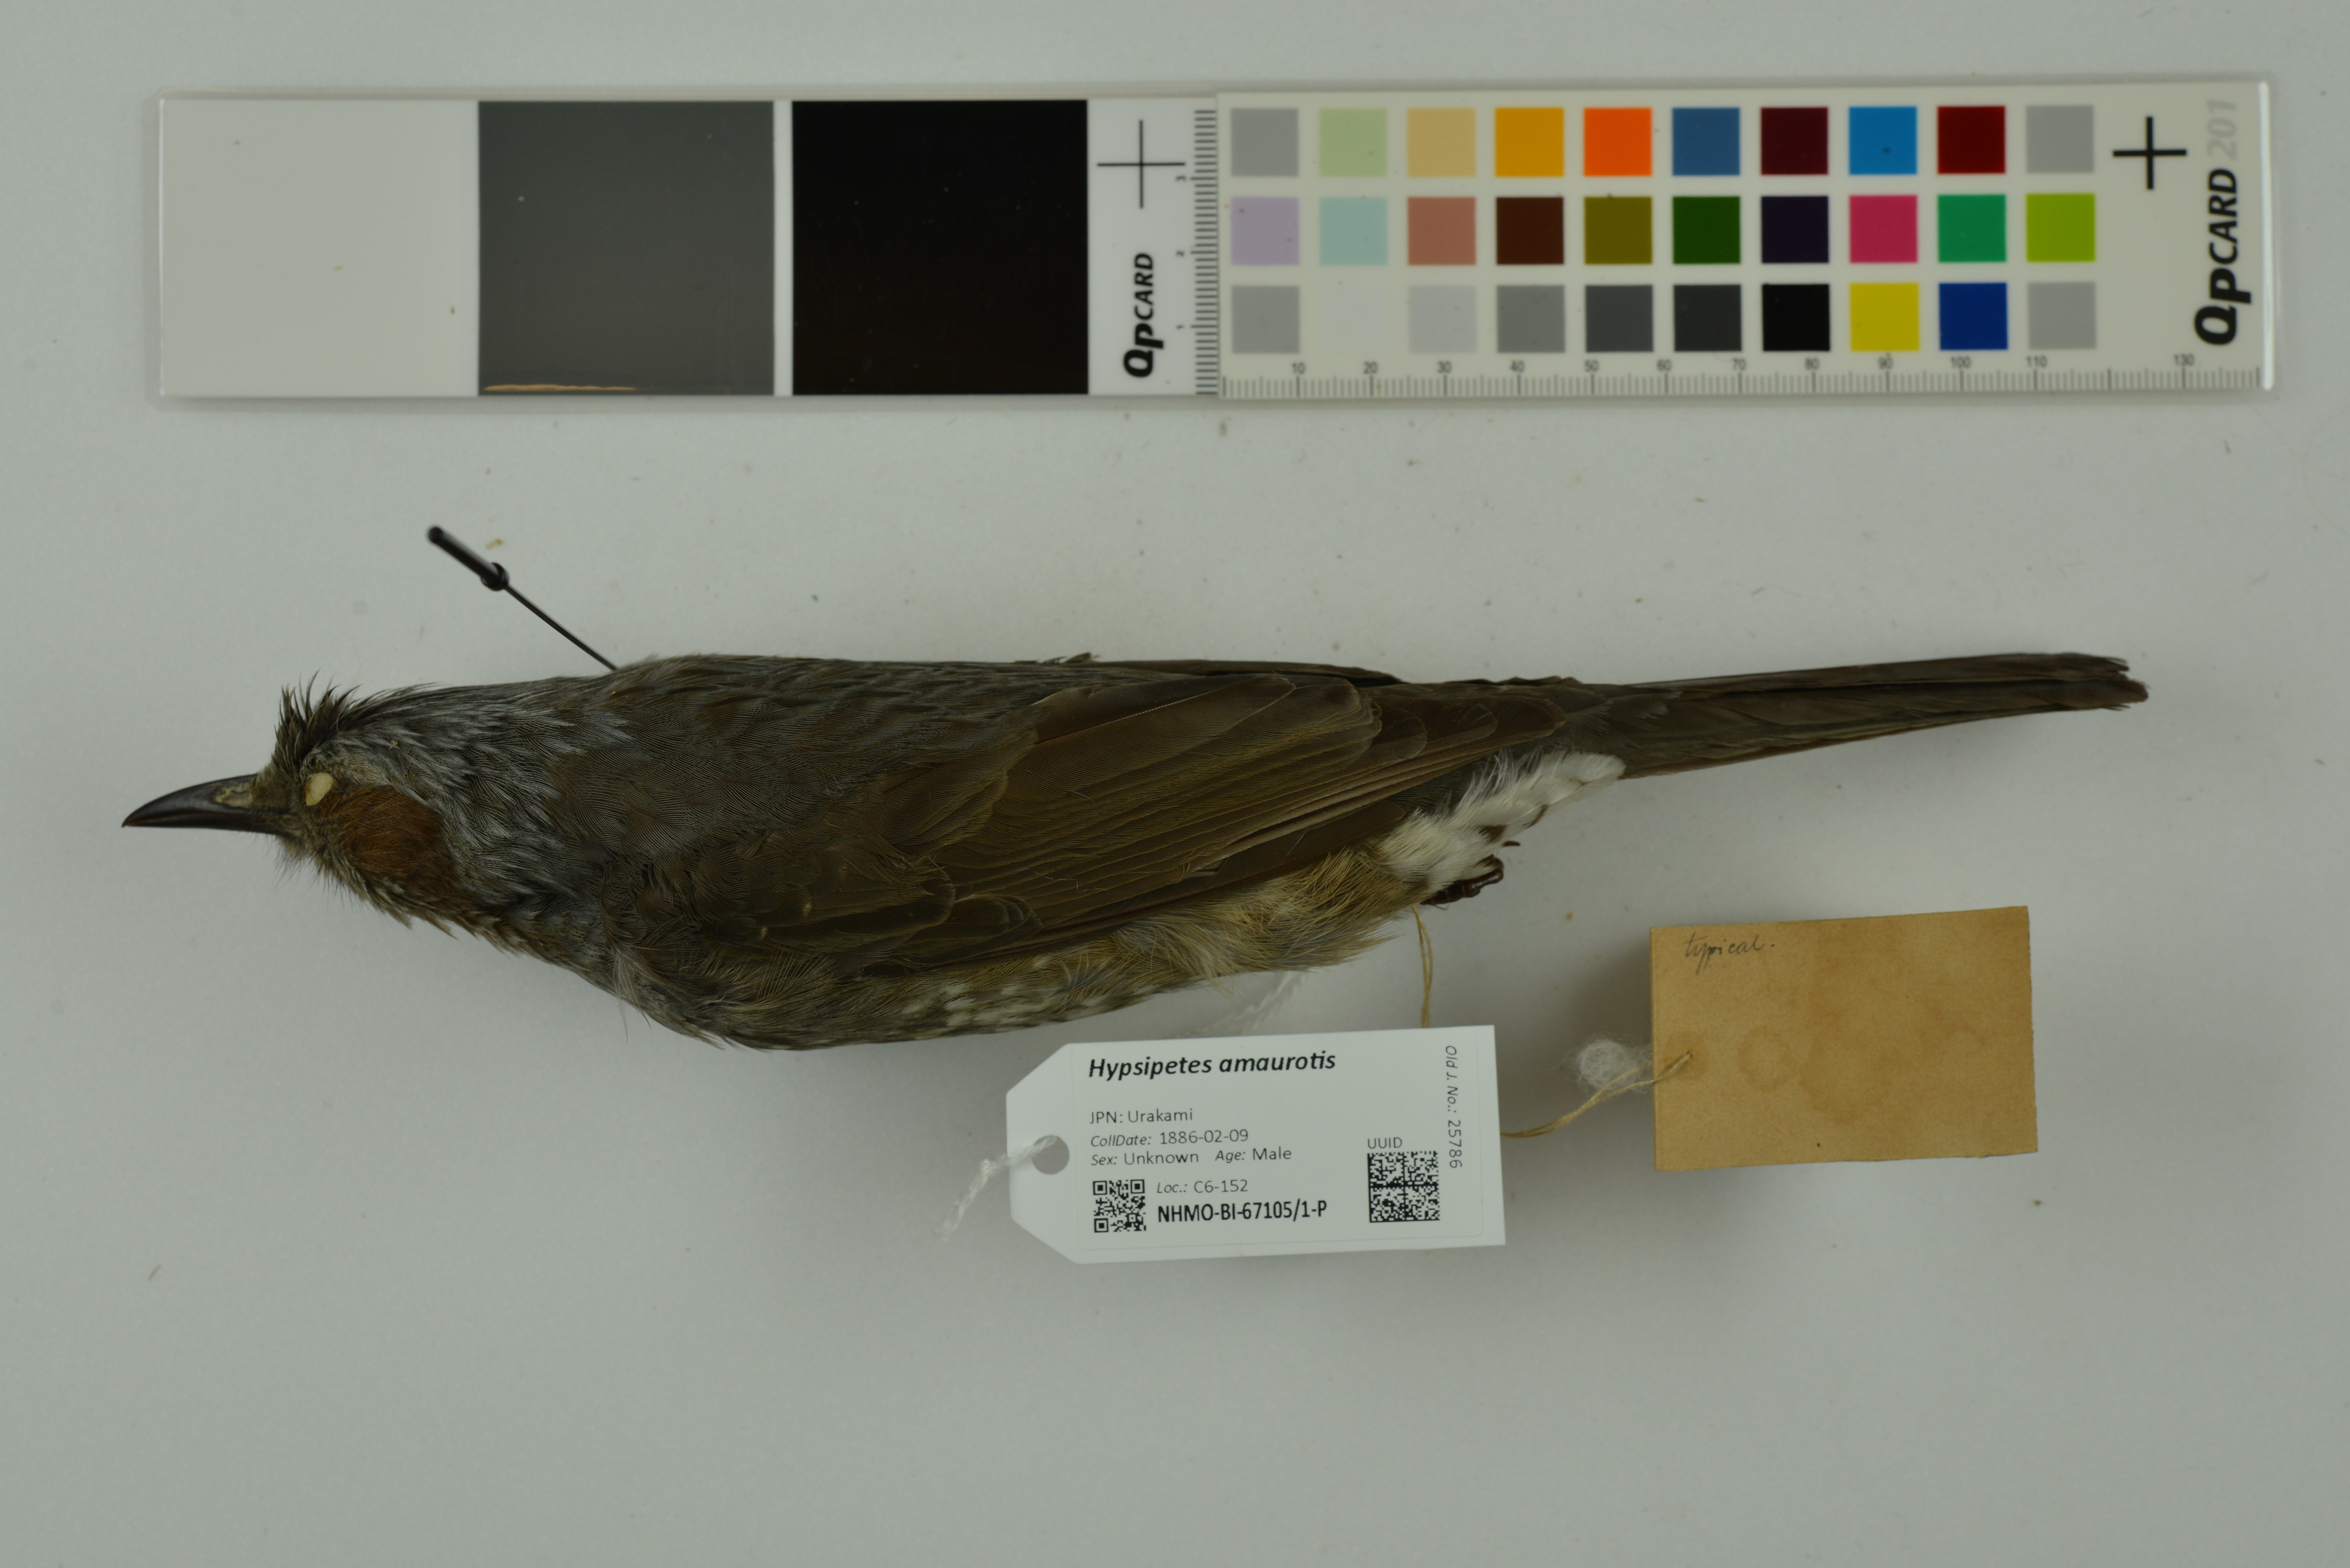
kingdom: Animalia
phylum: Chordata
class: Aves
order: Passeriformes
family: Pycnonotidae
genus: Hypsipetes
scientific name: Hypsipetes amaurotis
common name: Brown-eared bulbul
